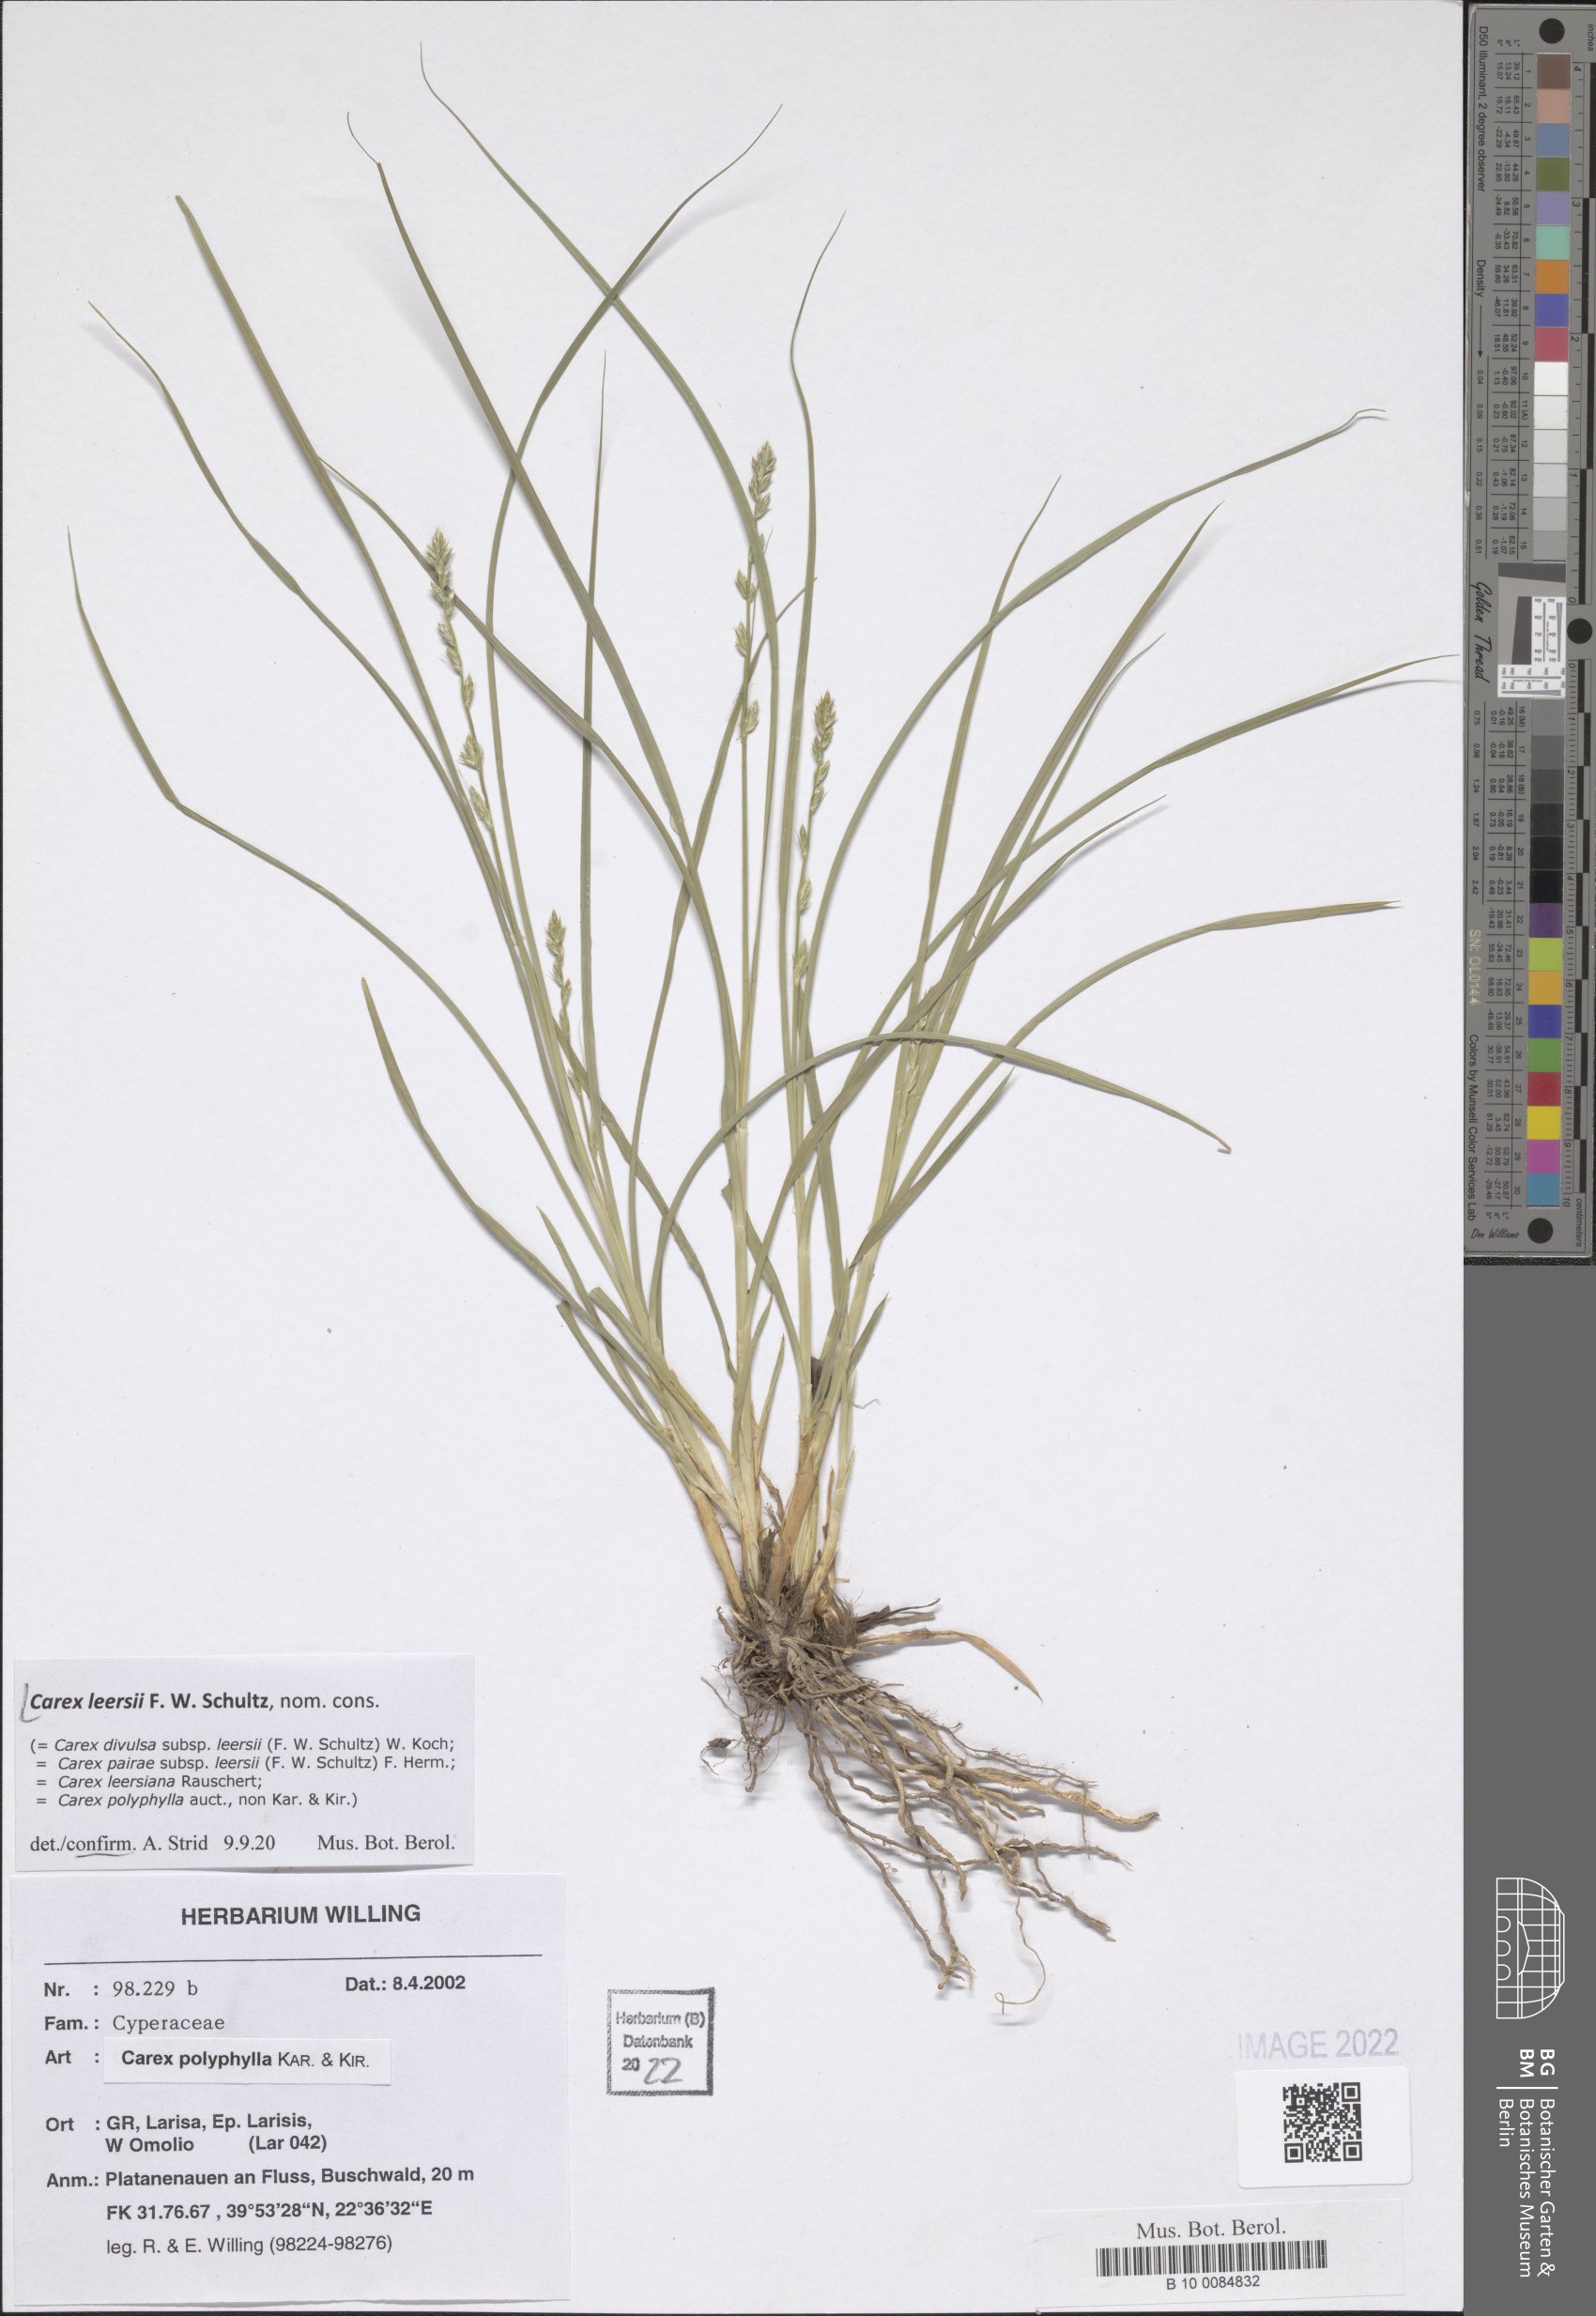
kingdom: Plantae
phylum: Tracheophyta
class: Liliopsida
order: Poales
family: Cyperaceae
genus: Carex
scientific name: Carex leersii
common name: Leers' sedge
